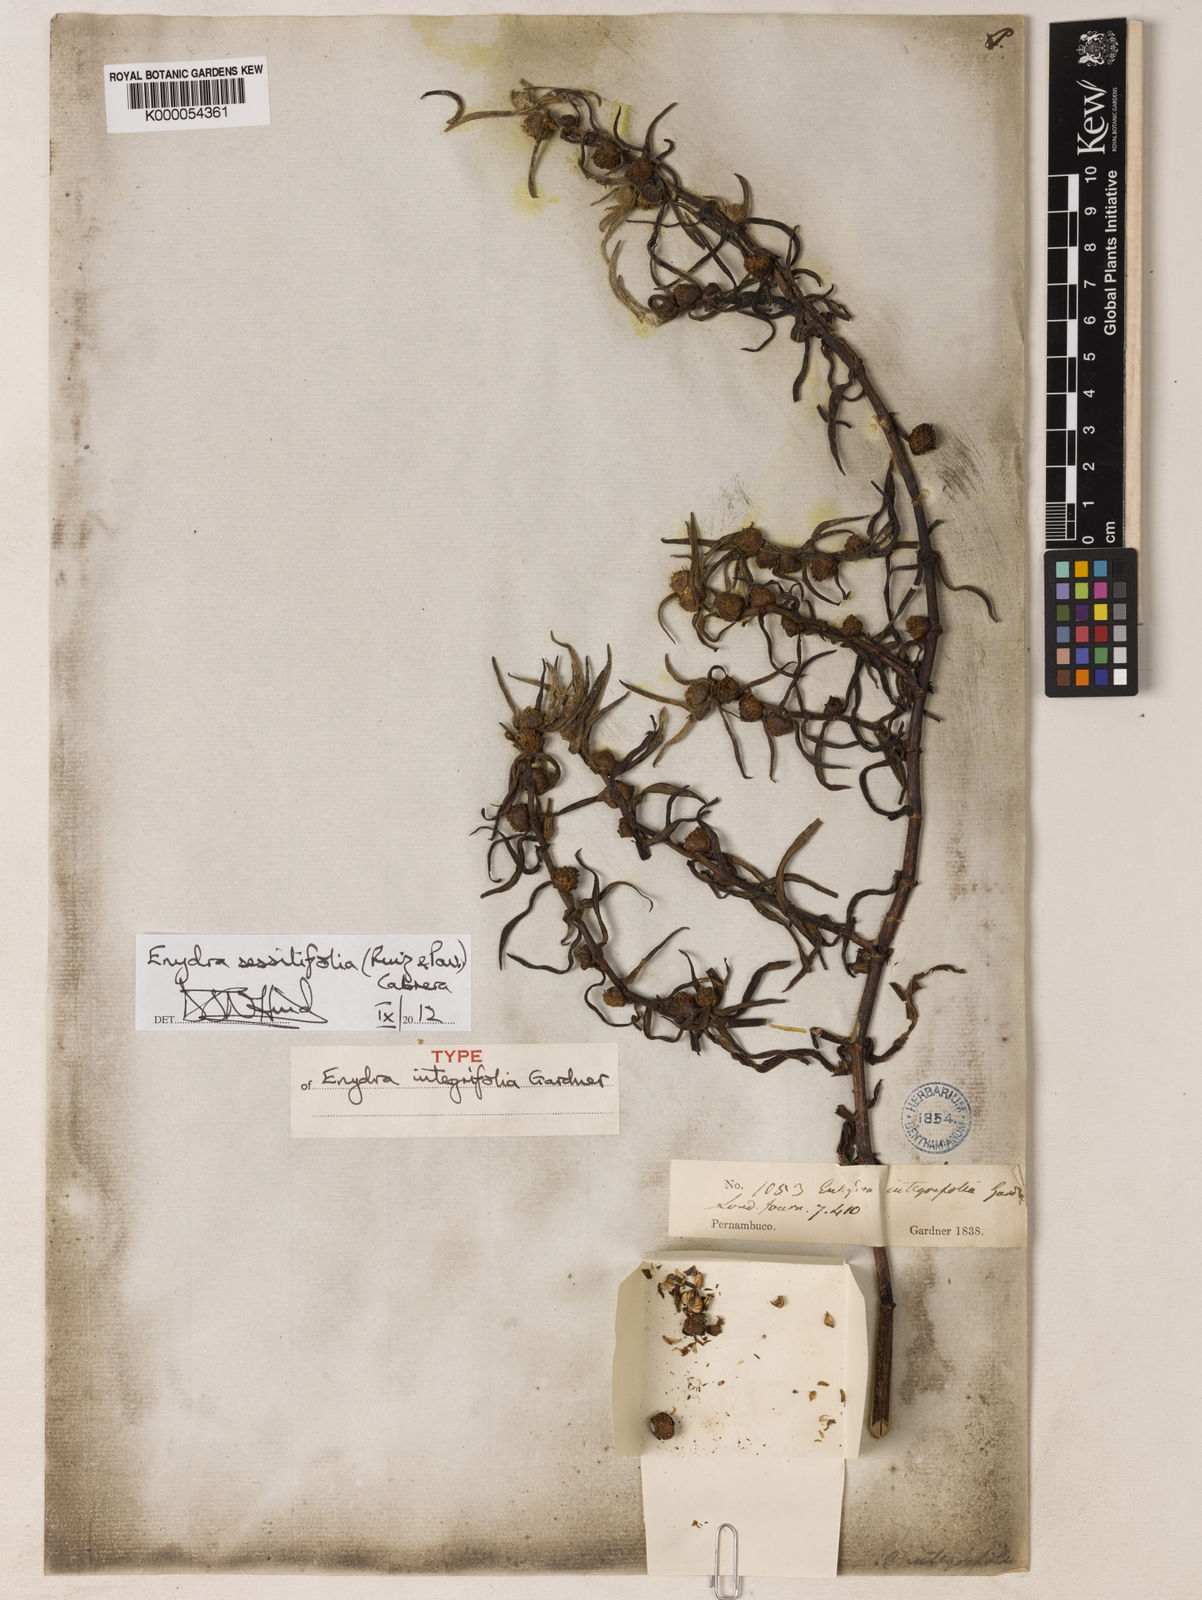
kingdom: Plantae
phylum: Tracheophyta
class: Magnoliopsida
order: Asterales
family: Asteraceae
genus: Enydra
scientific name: Enydra sessilifolia
